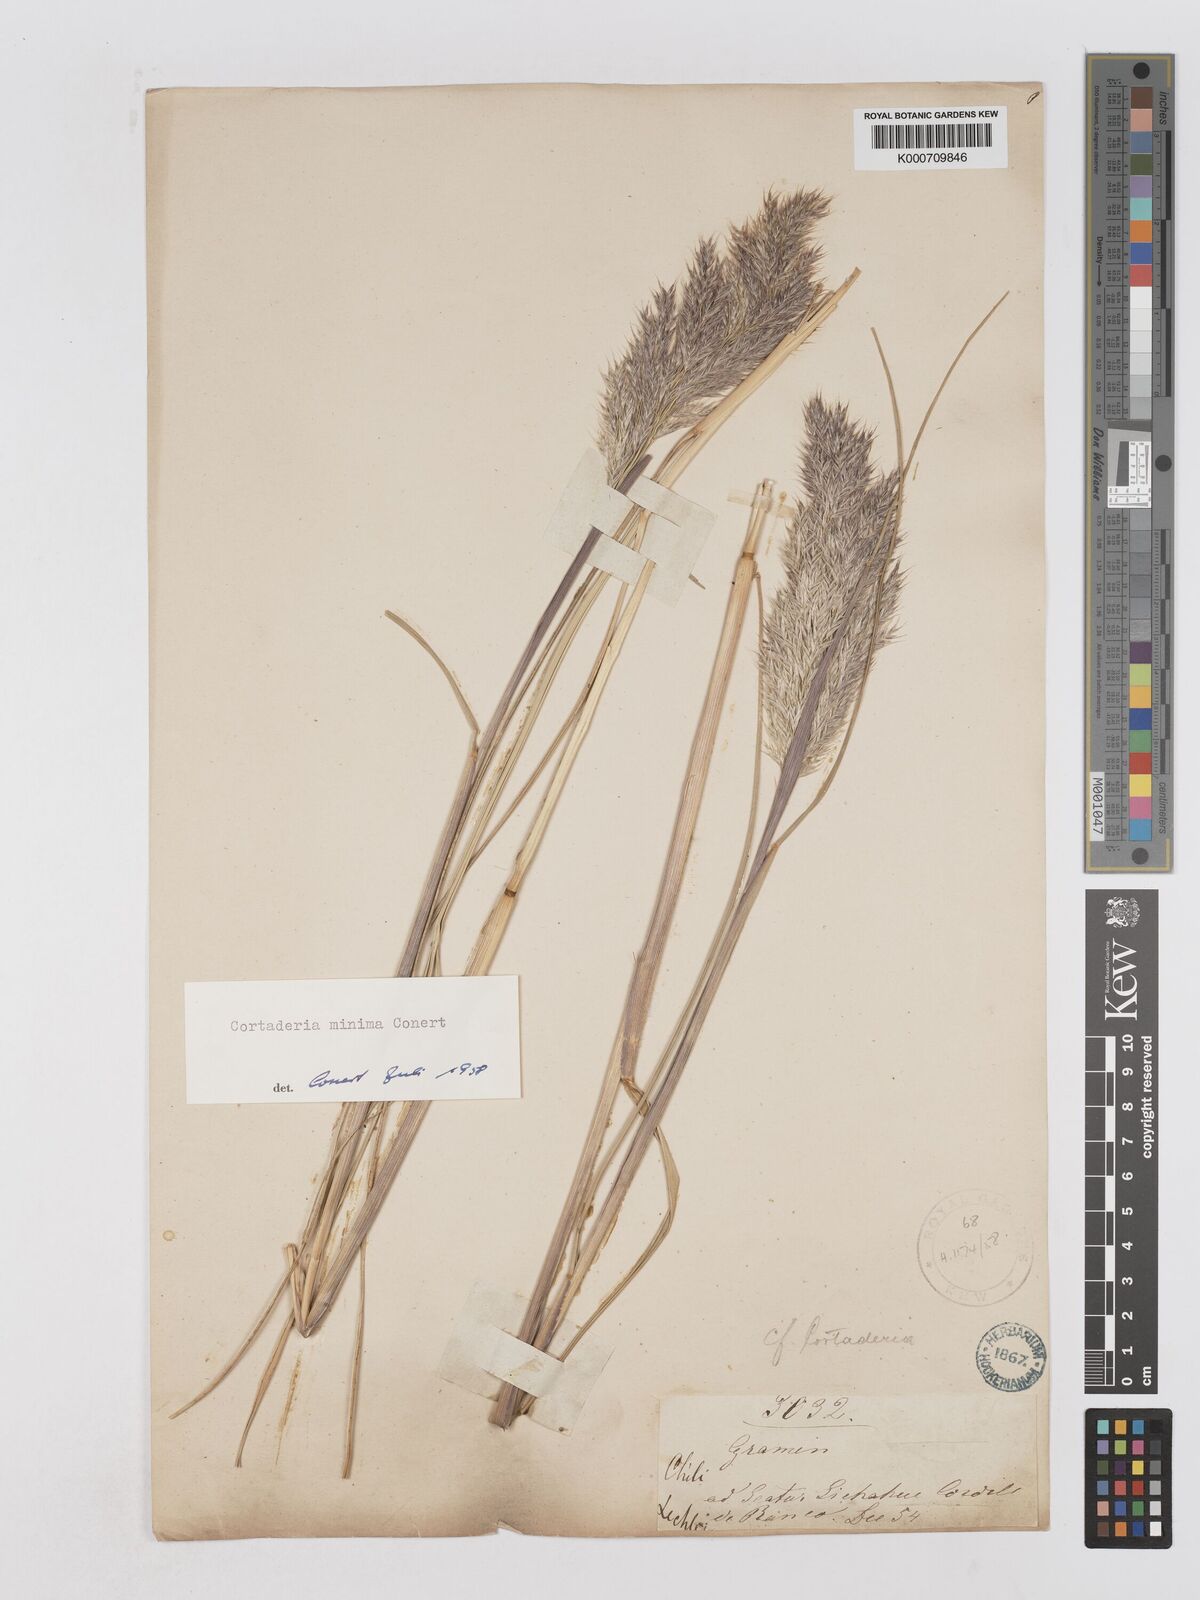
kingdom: Plantae
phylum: Tracheophyta
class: Liliopsida
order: Poales
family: Poaceae
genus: Cortaderia
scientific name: Cortaderia
